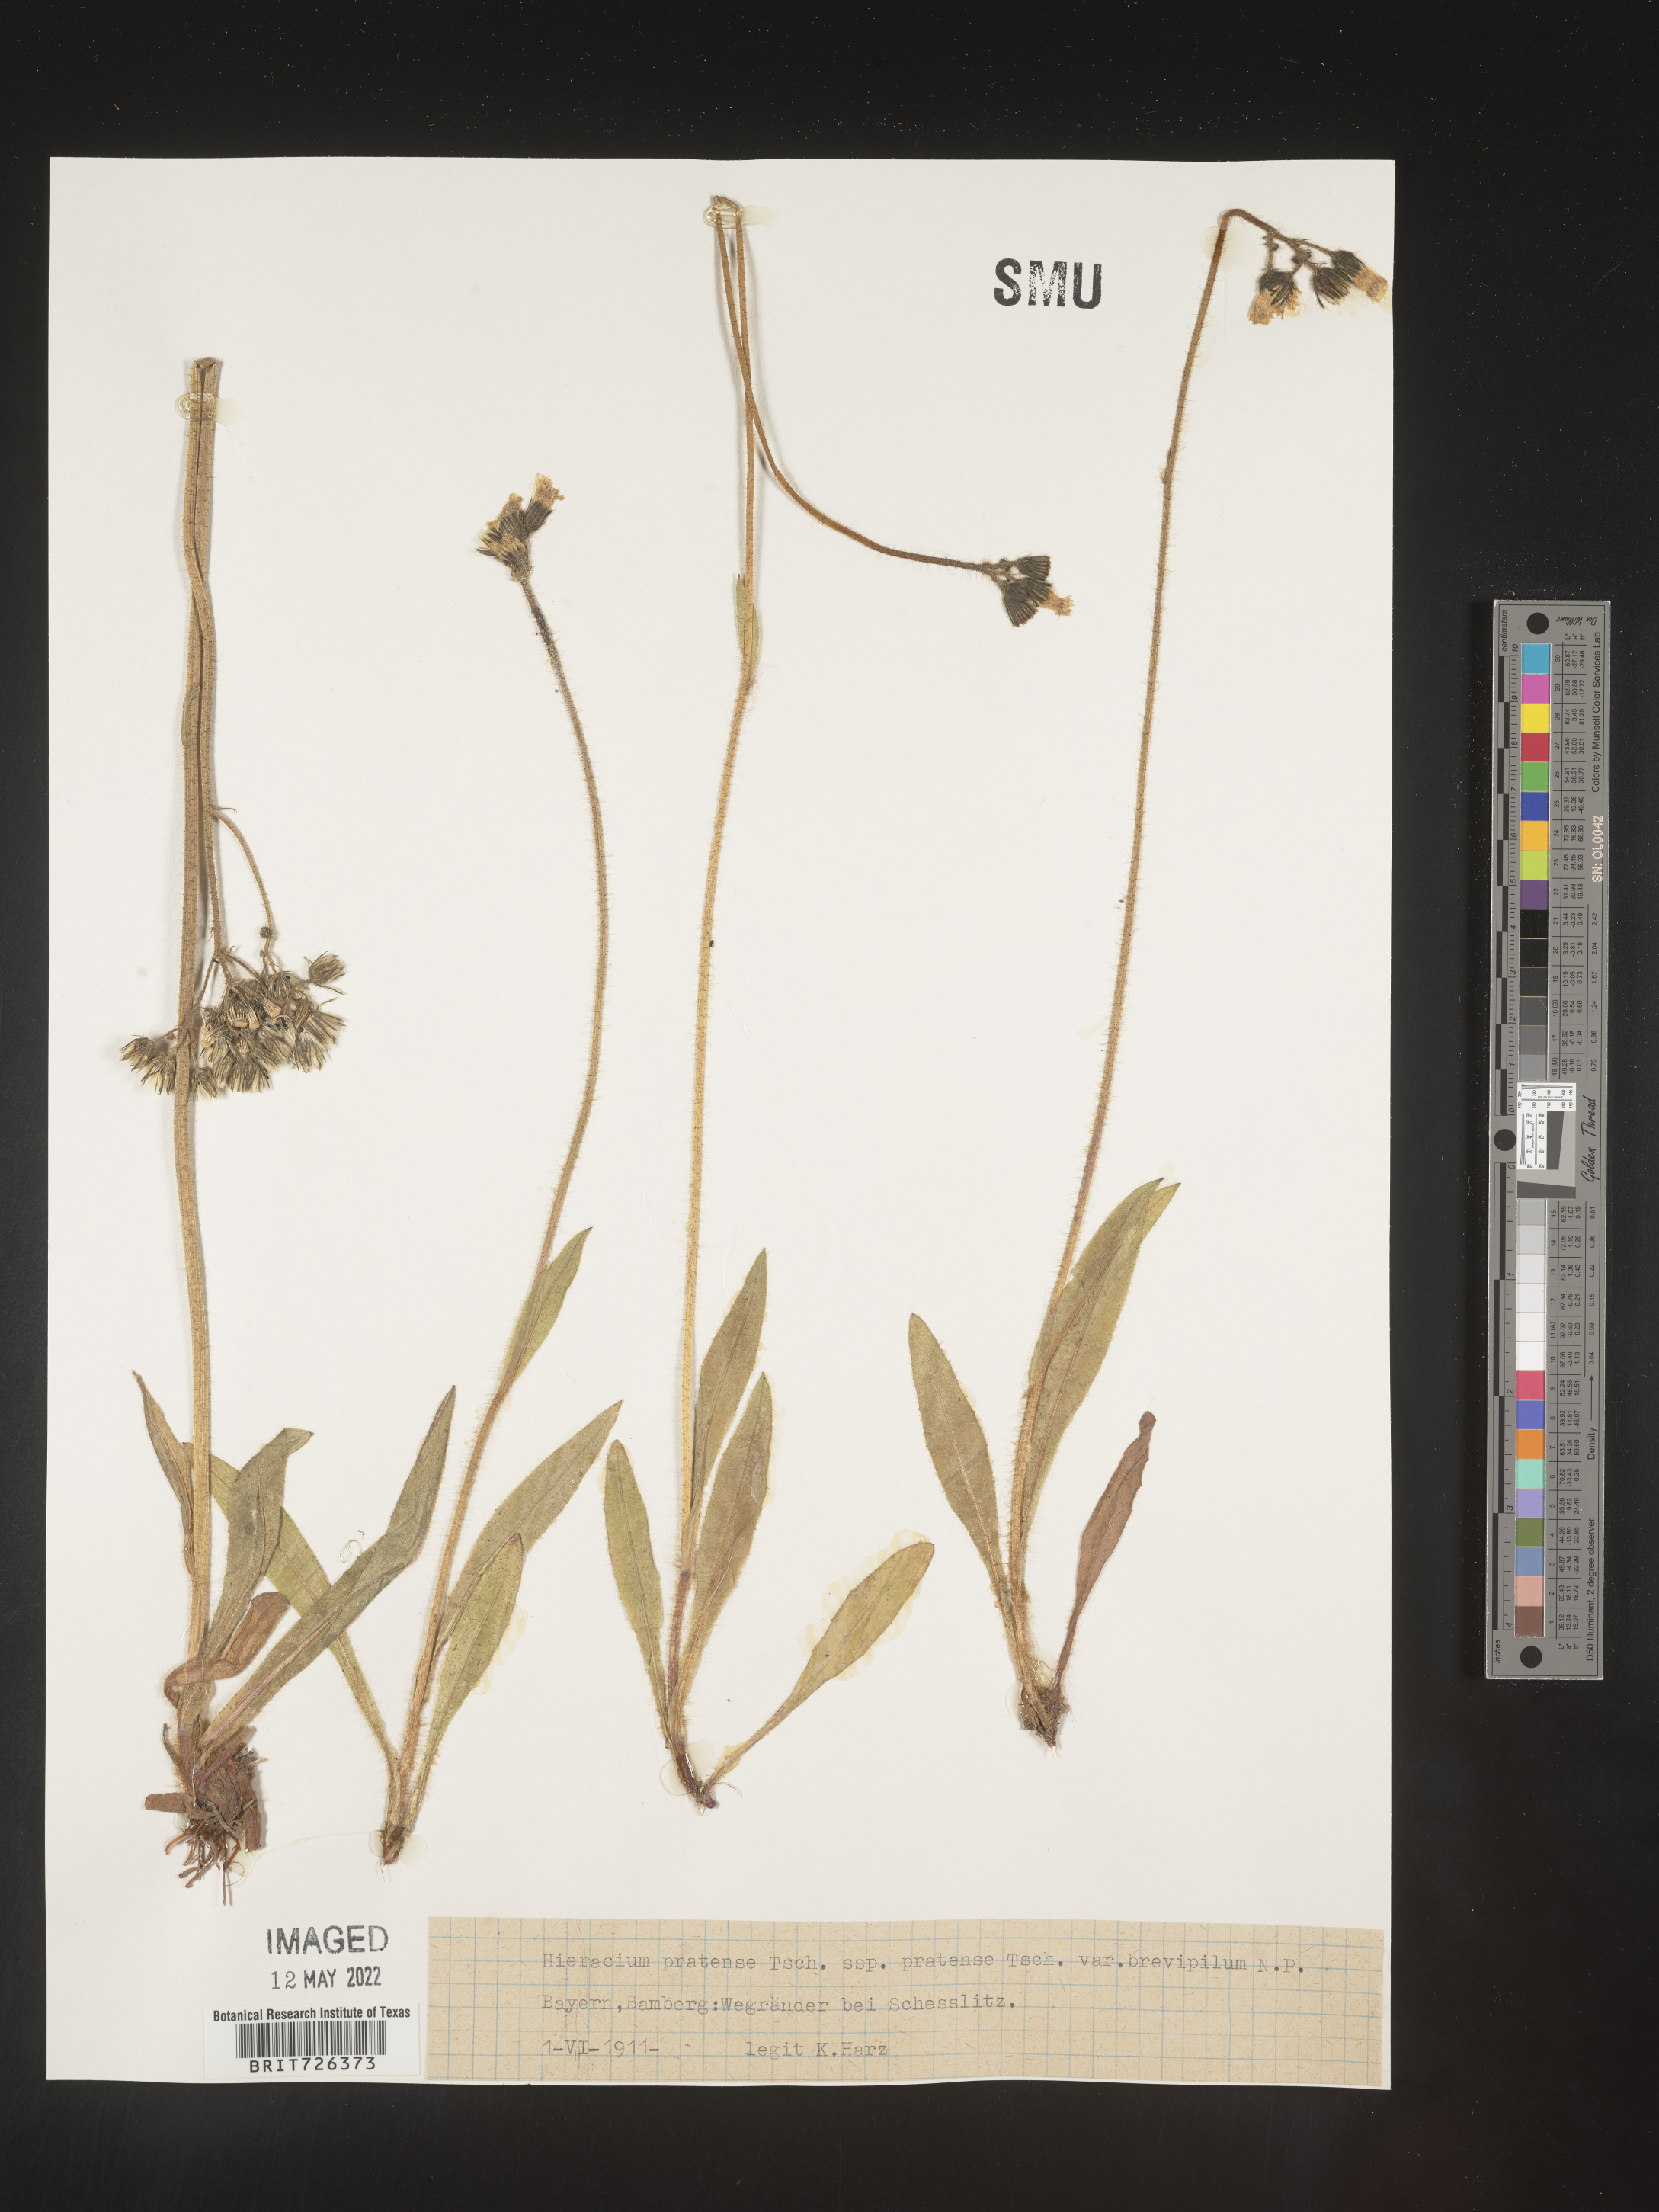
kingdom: Plantae
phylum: Tracheophyta
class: Magnoliopsida
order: Asterales
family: Asteraceae
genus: Hieracium
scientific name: Hieracium
